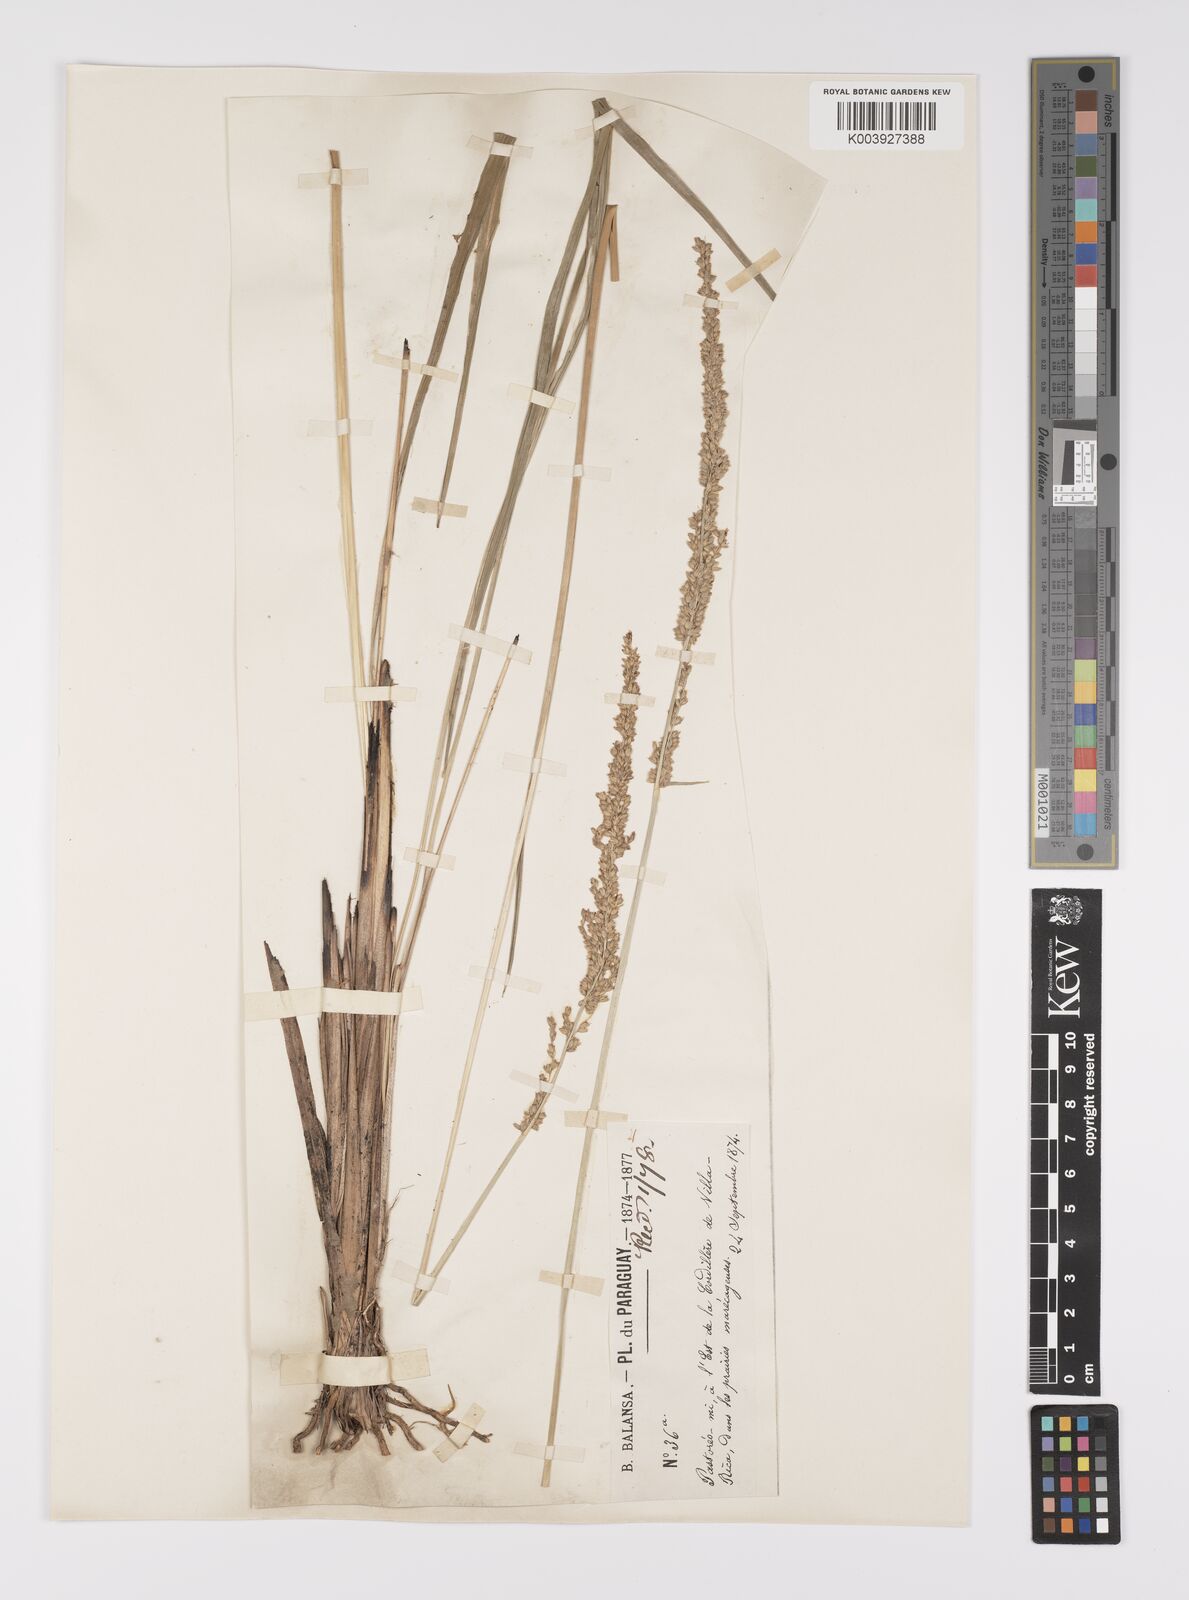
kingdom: Plantae
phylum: Tracheophyta
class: Liliopsida
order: Poales
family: Poaceae
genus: Anthaenantiopsis
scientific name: Anthaenantiopsis rojasiana
